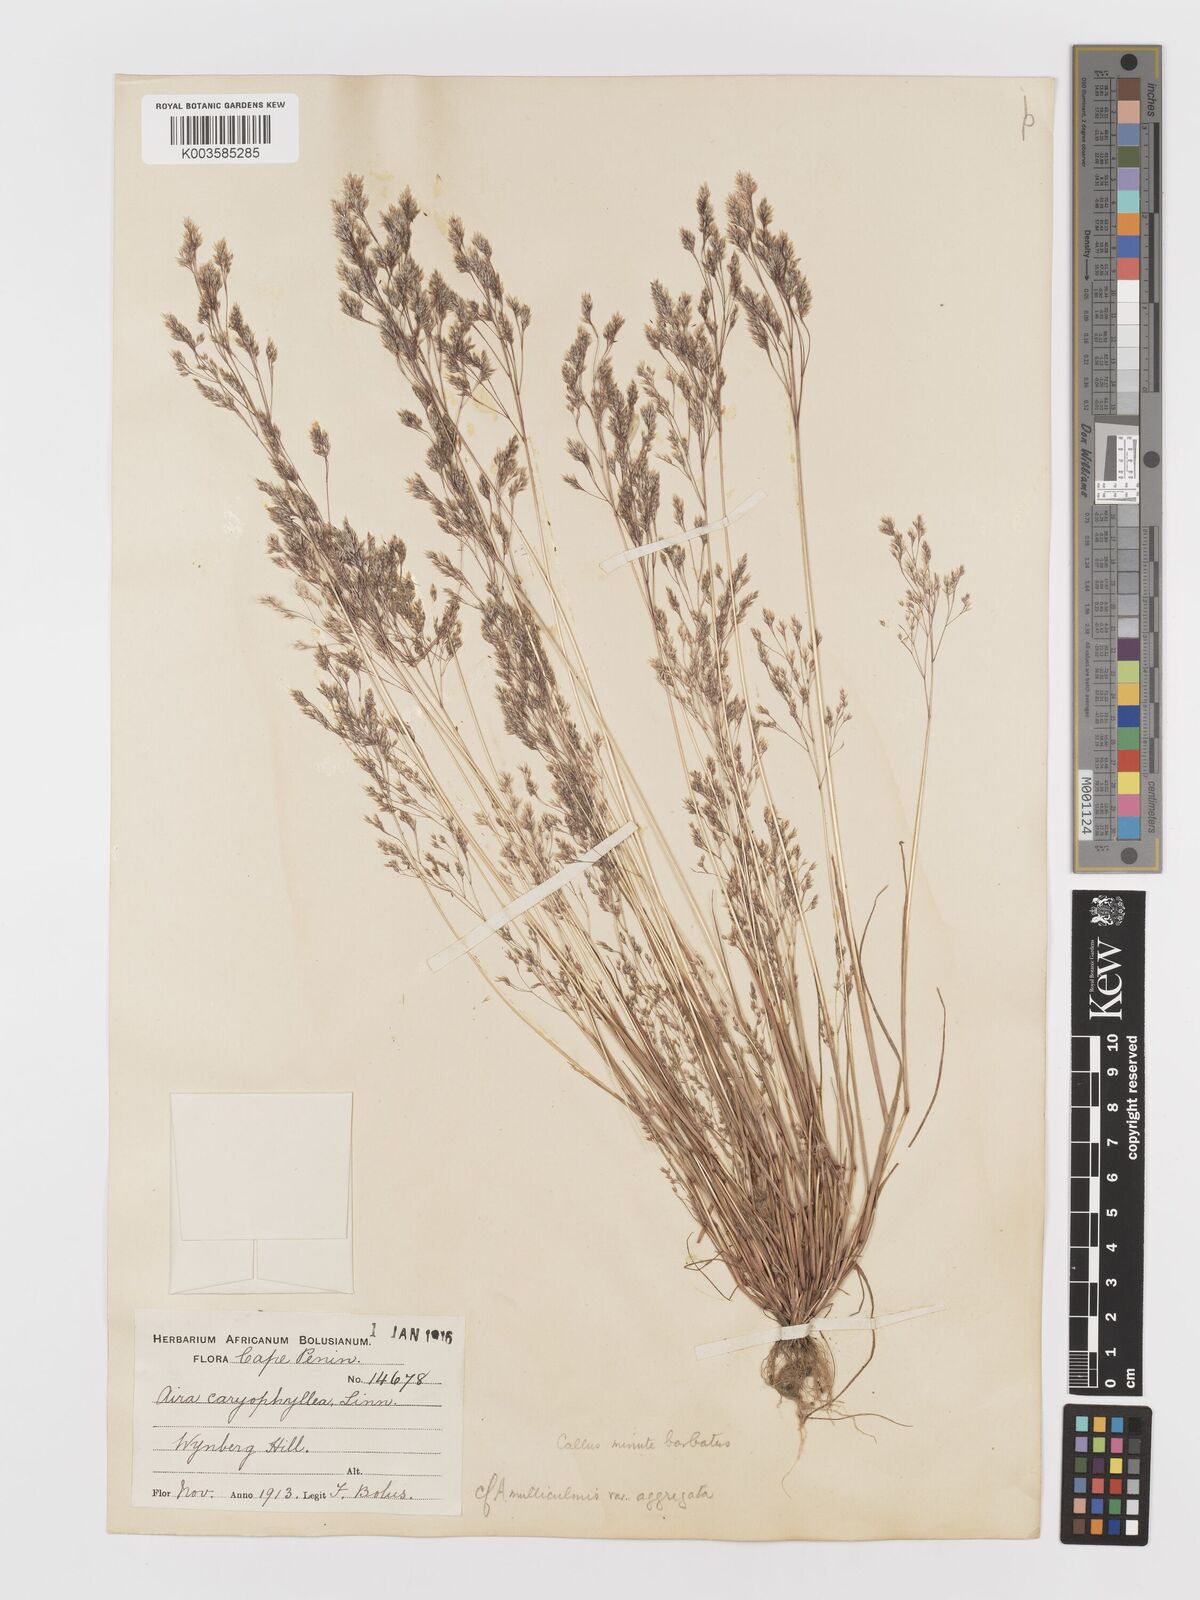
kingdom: Plantae
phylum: Tracheophyta
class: Liliopsida
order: Poales
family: Poaceae
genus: Aira
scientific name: Aira cupaniana
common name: Silver hairgrass
